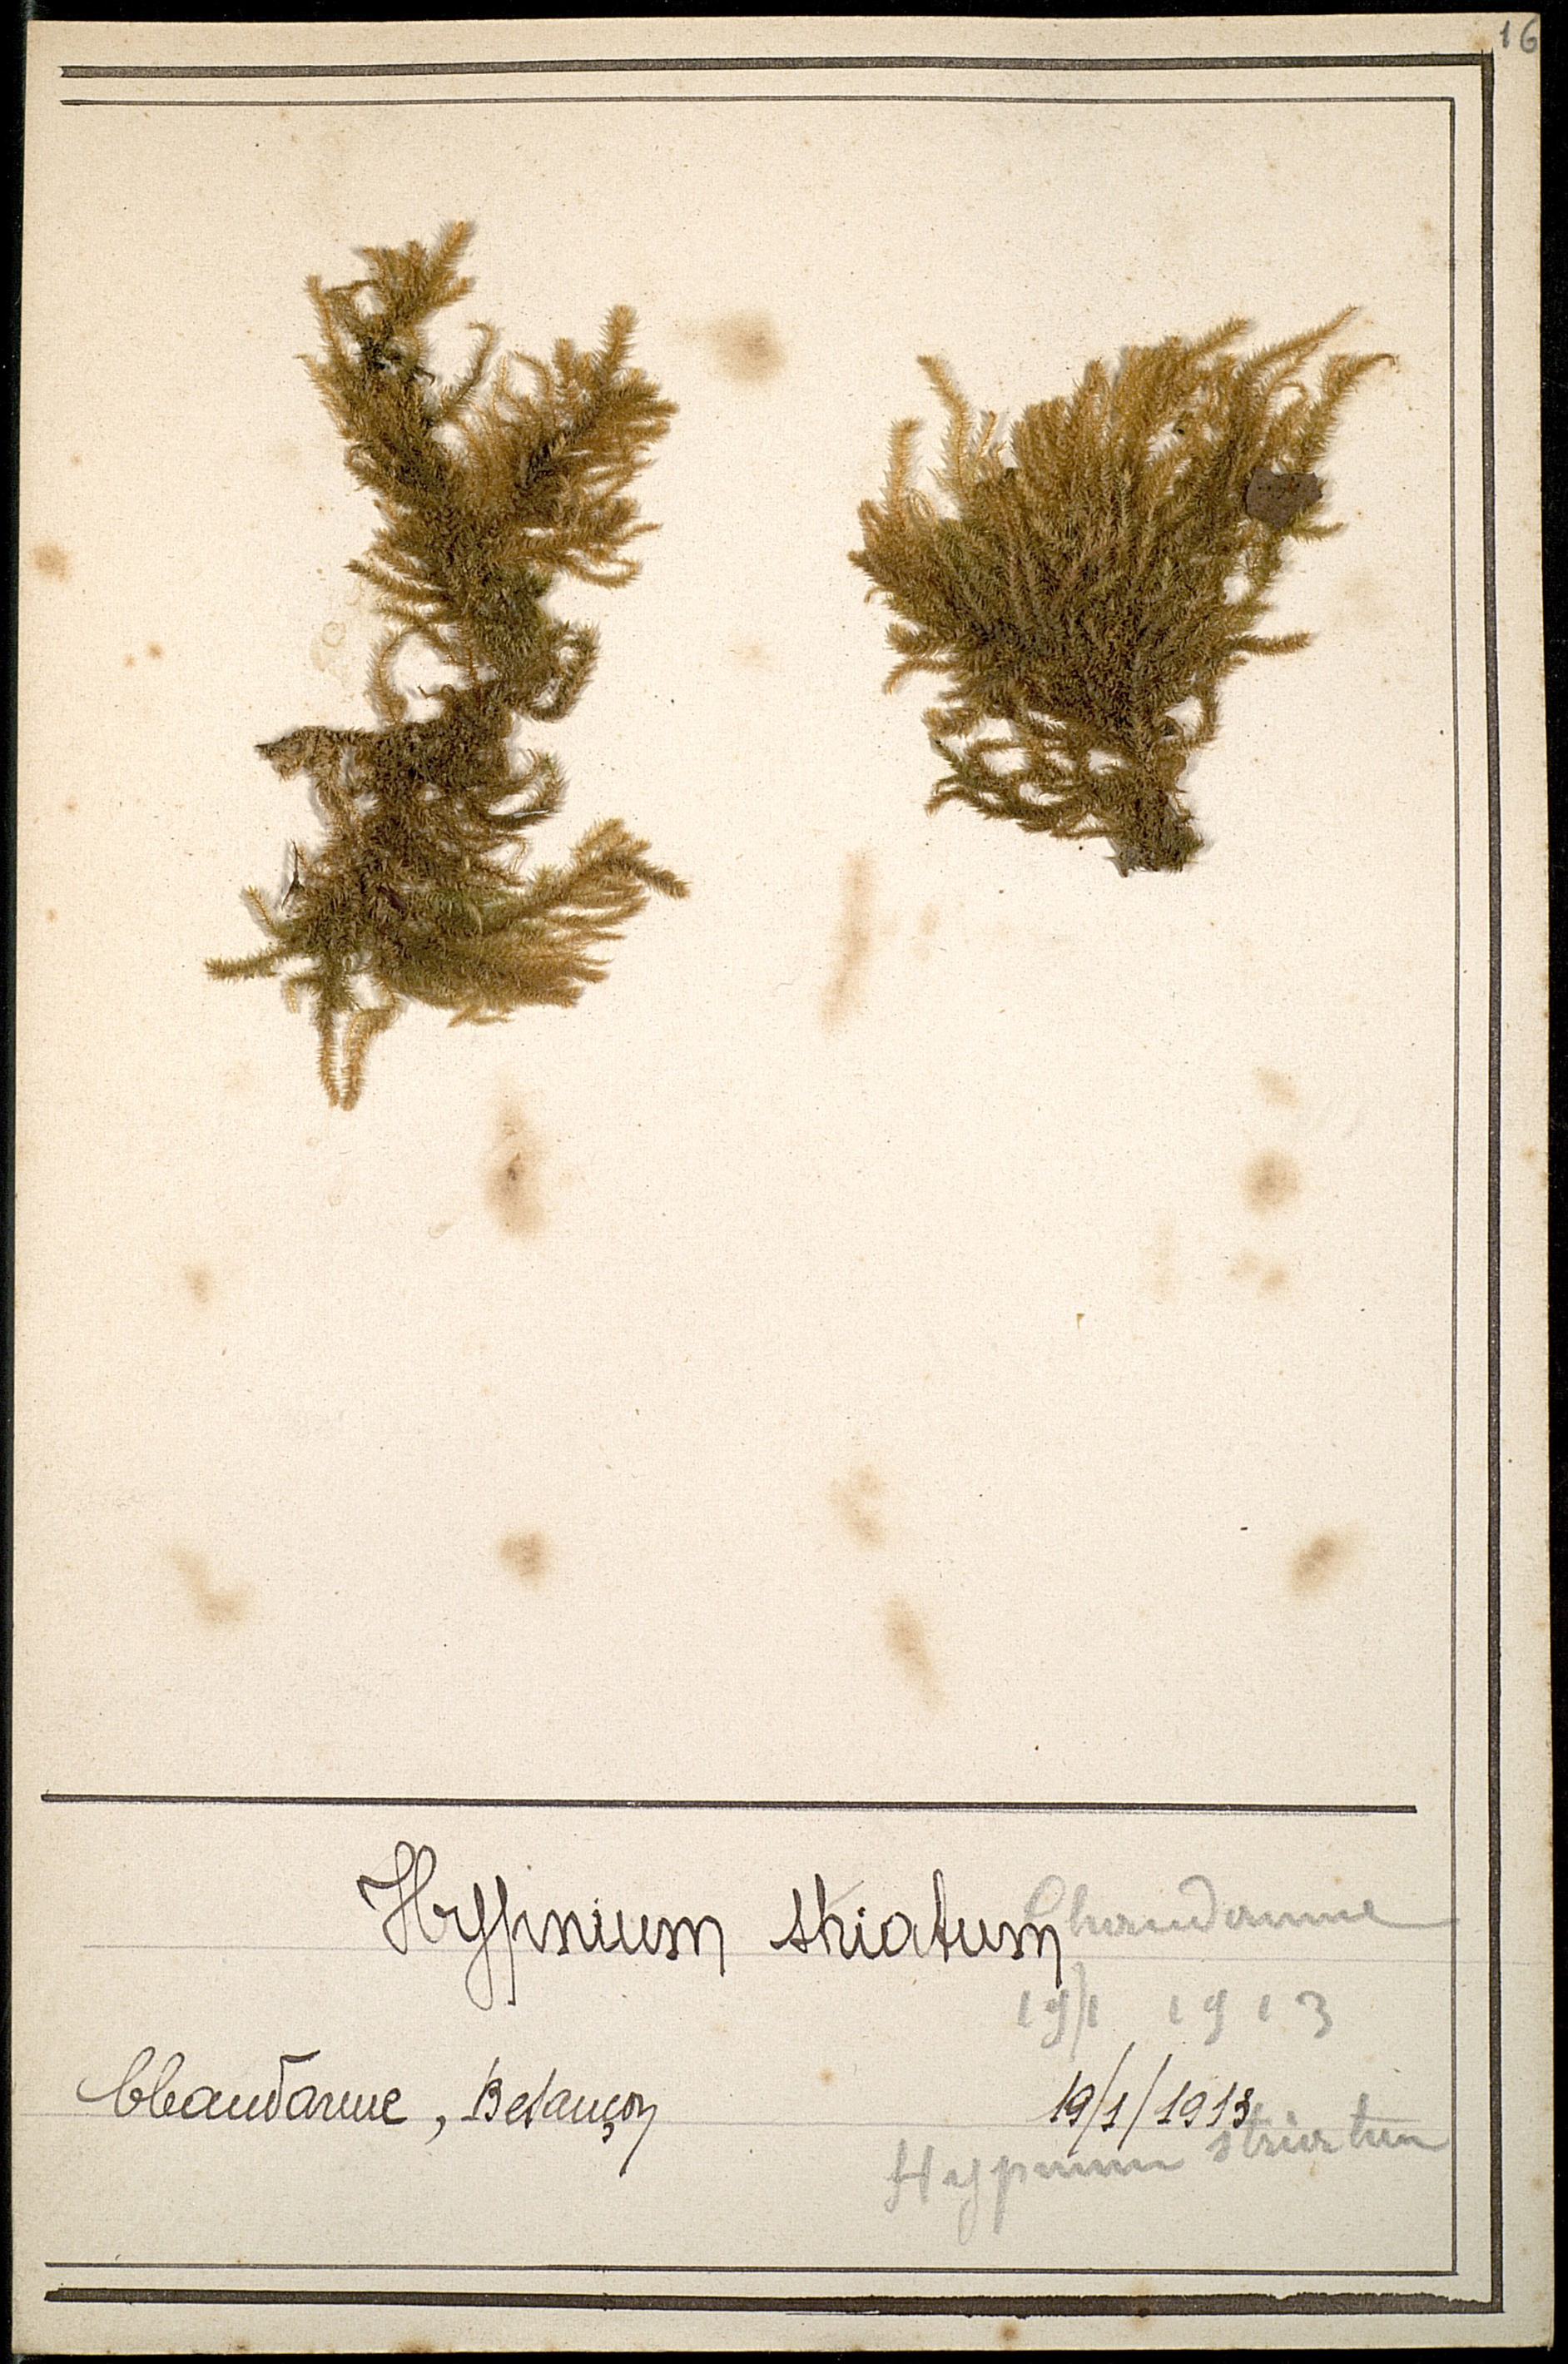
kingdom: Plantae
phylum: Bryophyta
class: Bryopsida
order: Hypnales
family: Brachytheciaceae
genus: Eurhynchium
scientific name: Eurhynchium striatum
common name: Common striated feather-moss
